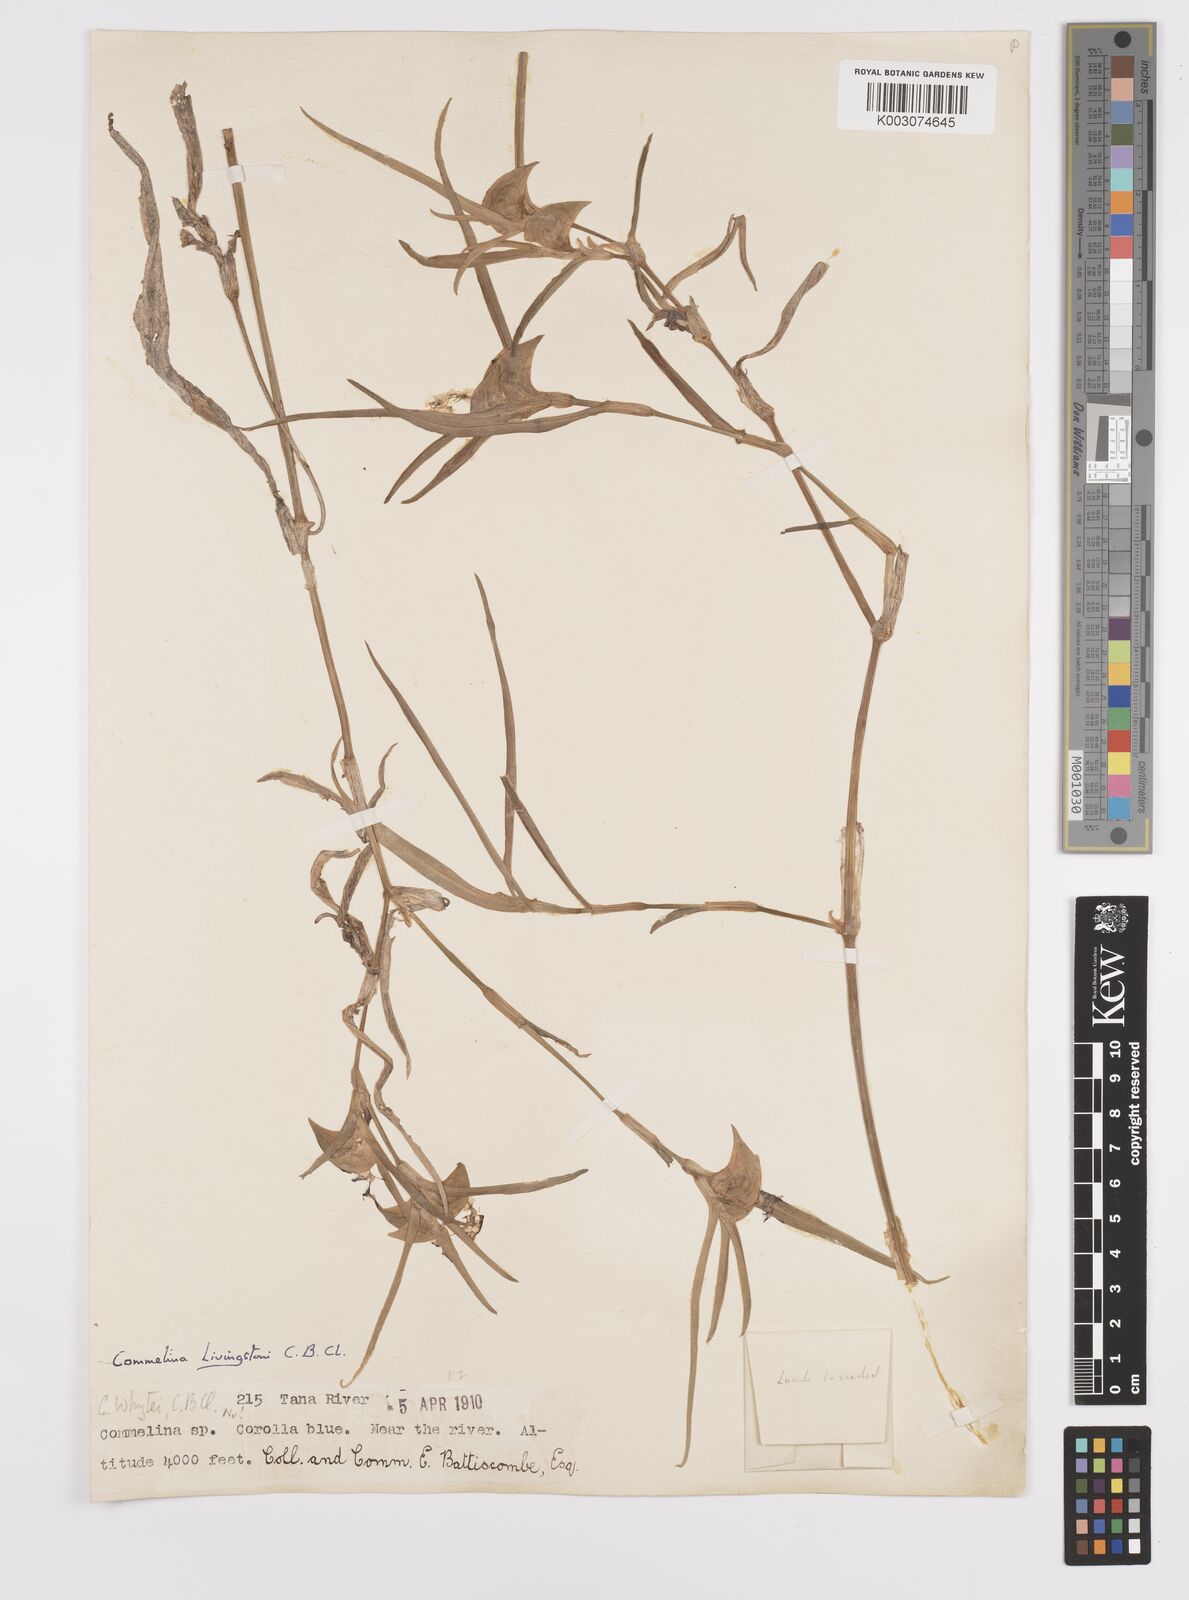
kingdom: Plantae
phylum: Tracheophyta
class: Liliopsida
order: Commelinales
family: Commelinaceae
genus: Commelina
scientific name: Commelina erecta
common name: Blousel blommetjie
